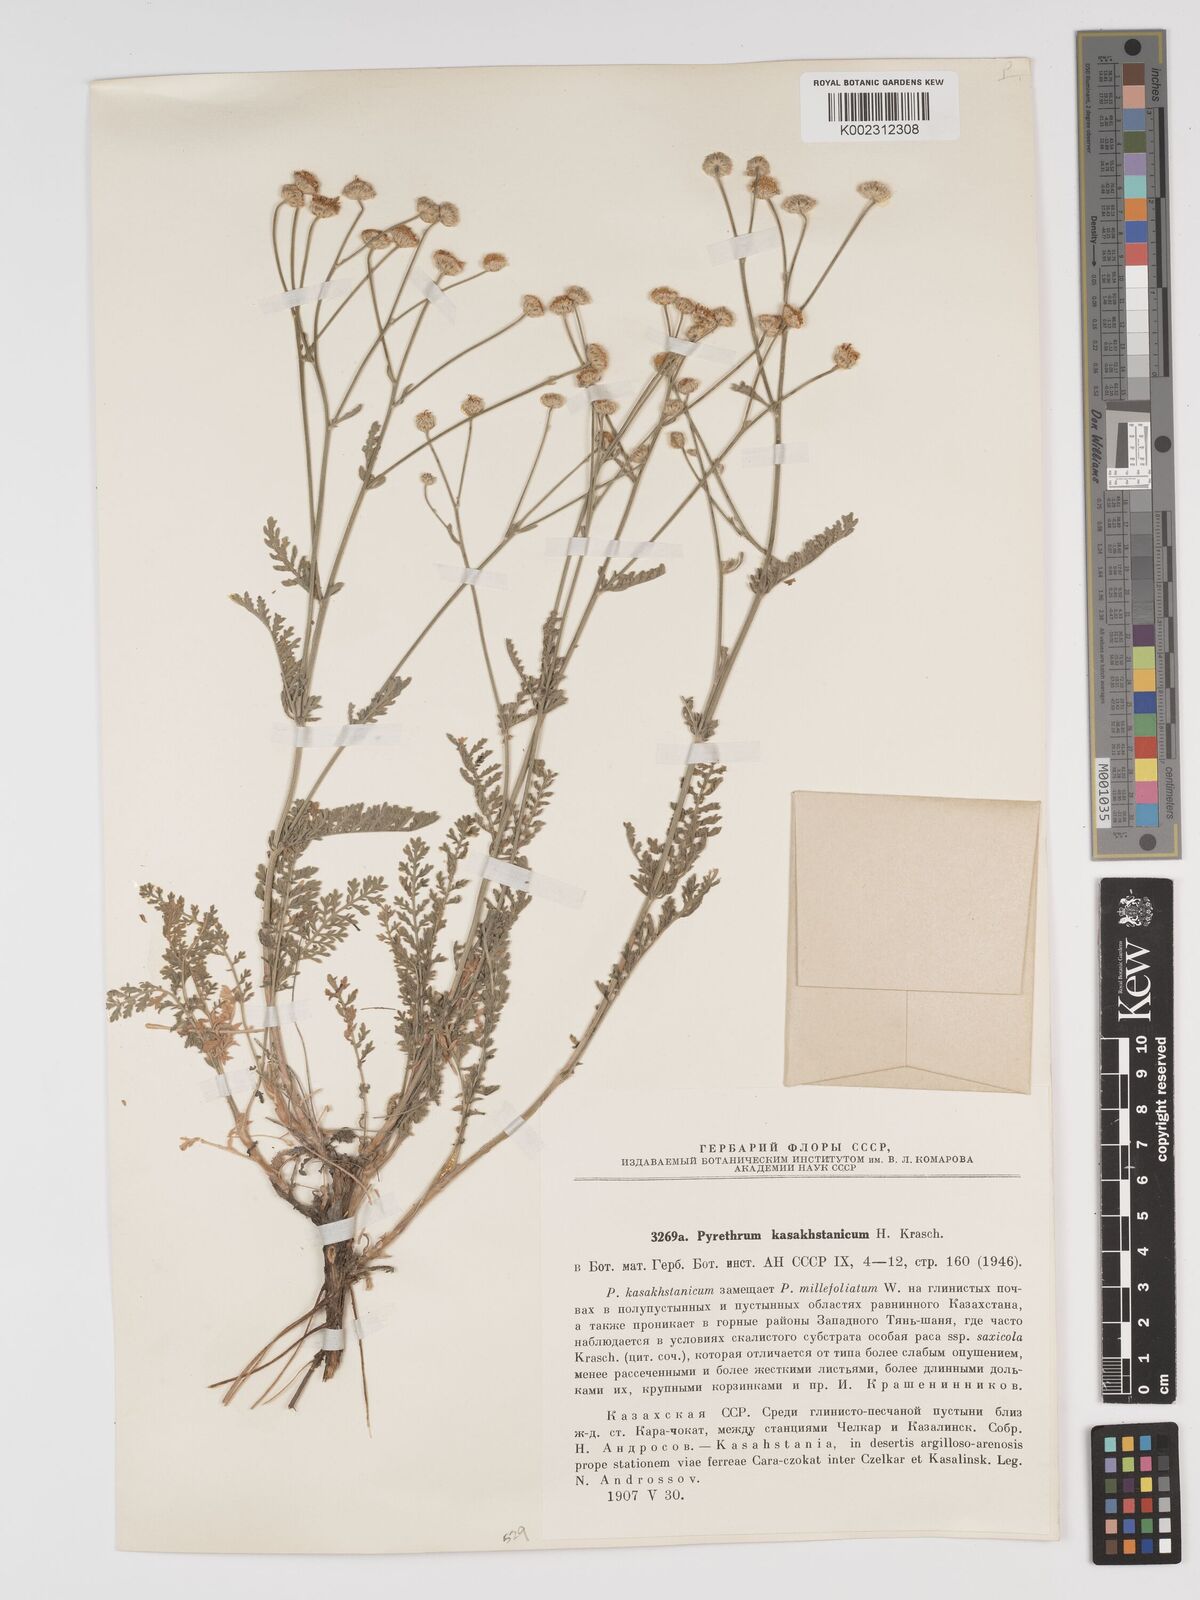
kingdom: Plantae
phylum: Tracheophyta
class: Magnoliopsida
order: Asterales
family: Asteraceae
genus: Tanacetum
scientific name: Tanacetum santolina
